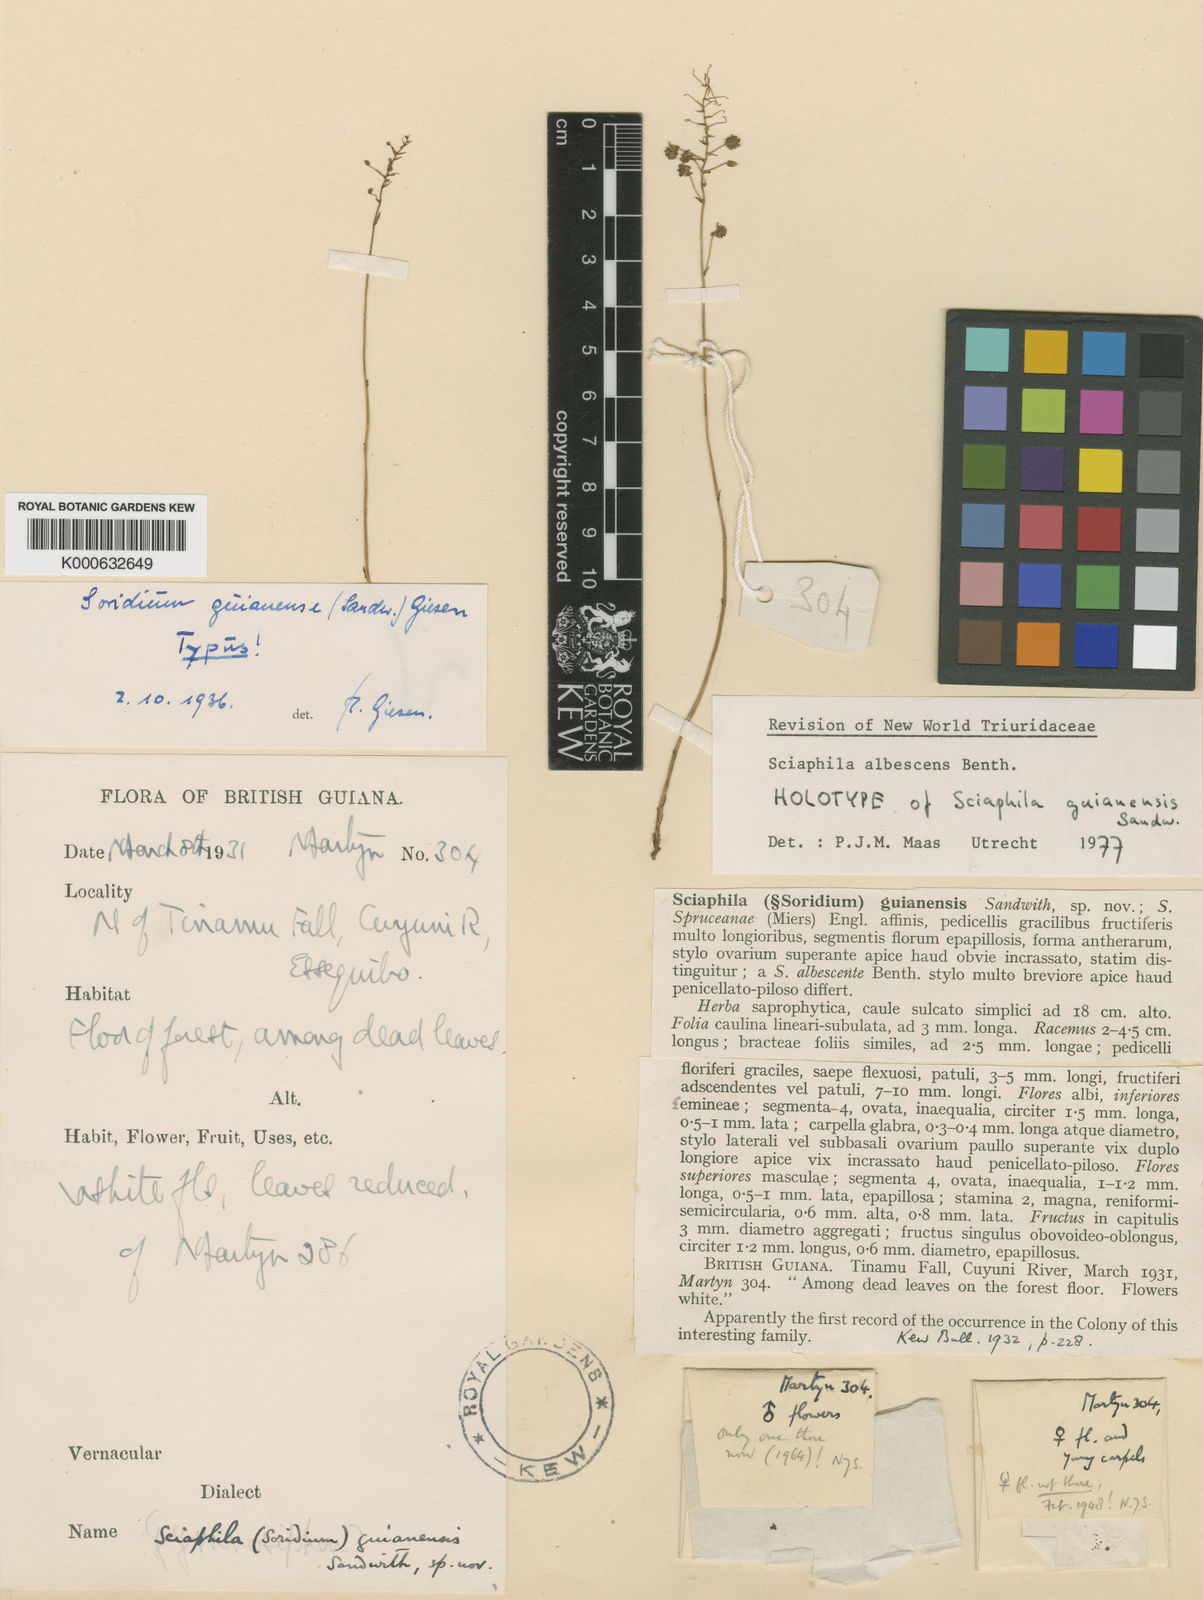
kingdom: Plantae
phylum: Tracheophyta
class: Liliopsida
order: Pandanales
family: Triuridaceae
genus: Sciaphila
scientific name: Sciaphila albescens
